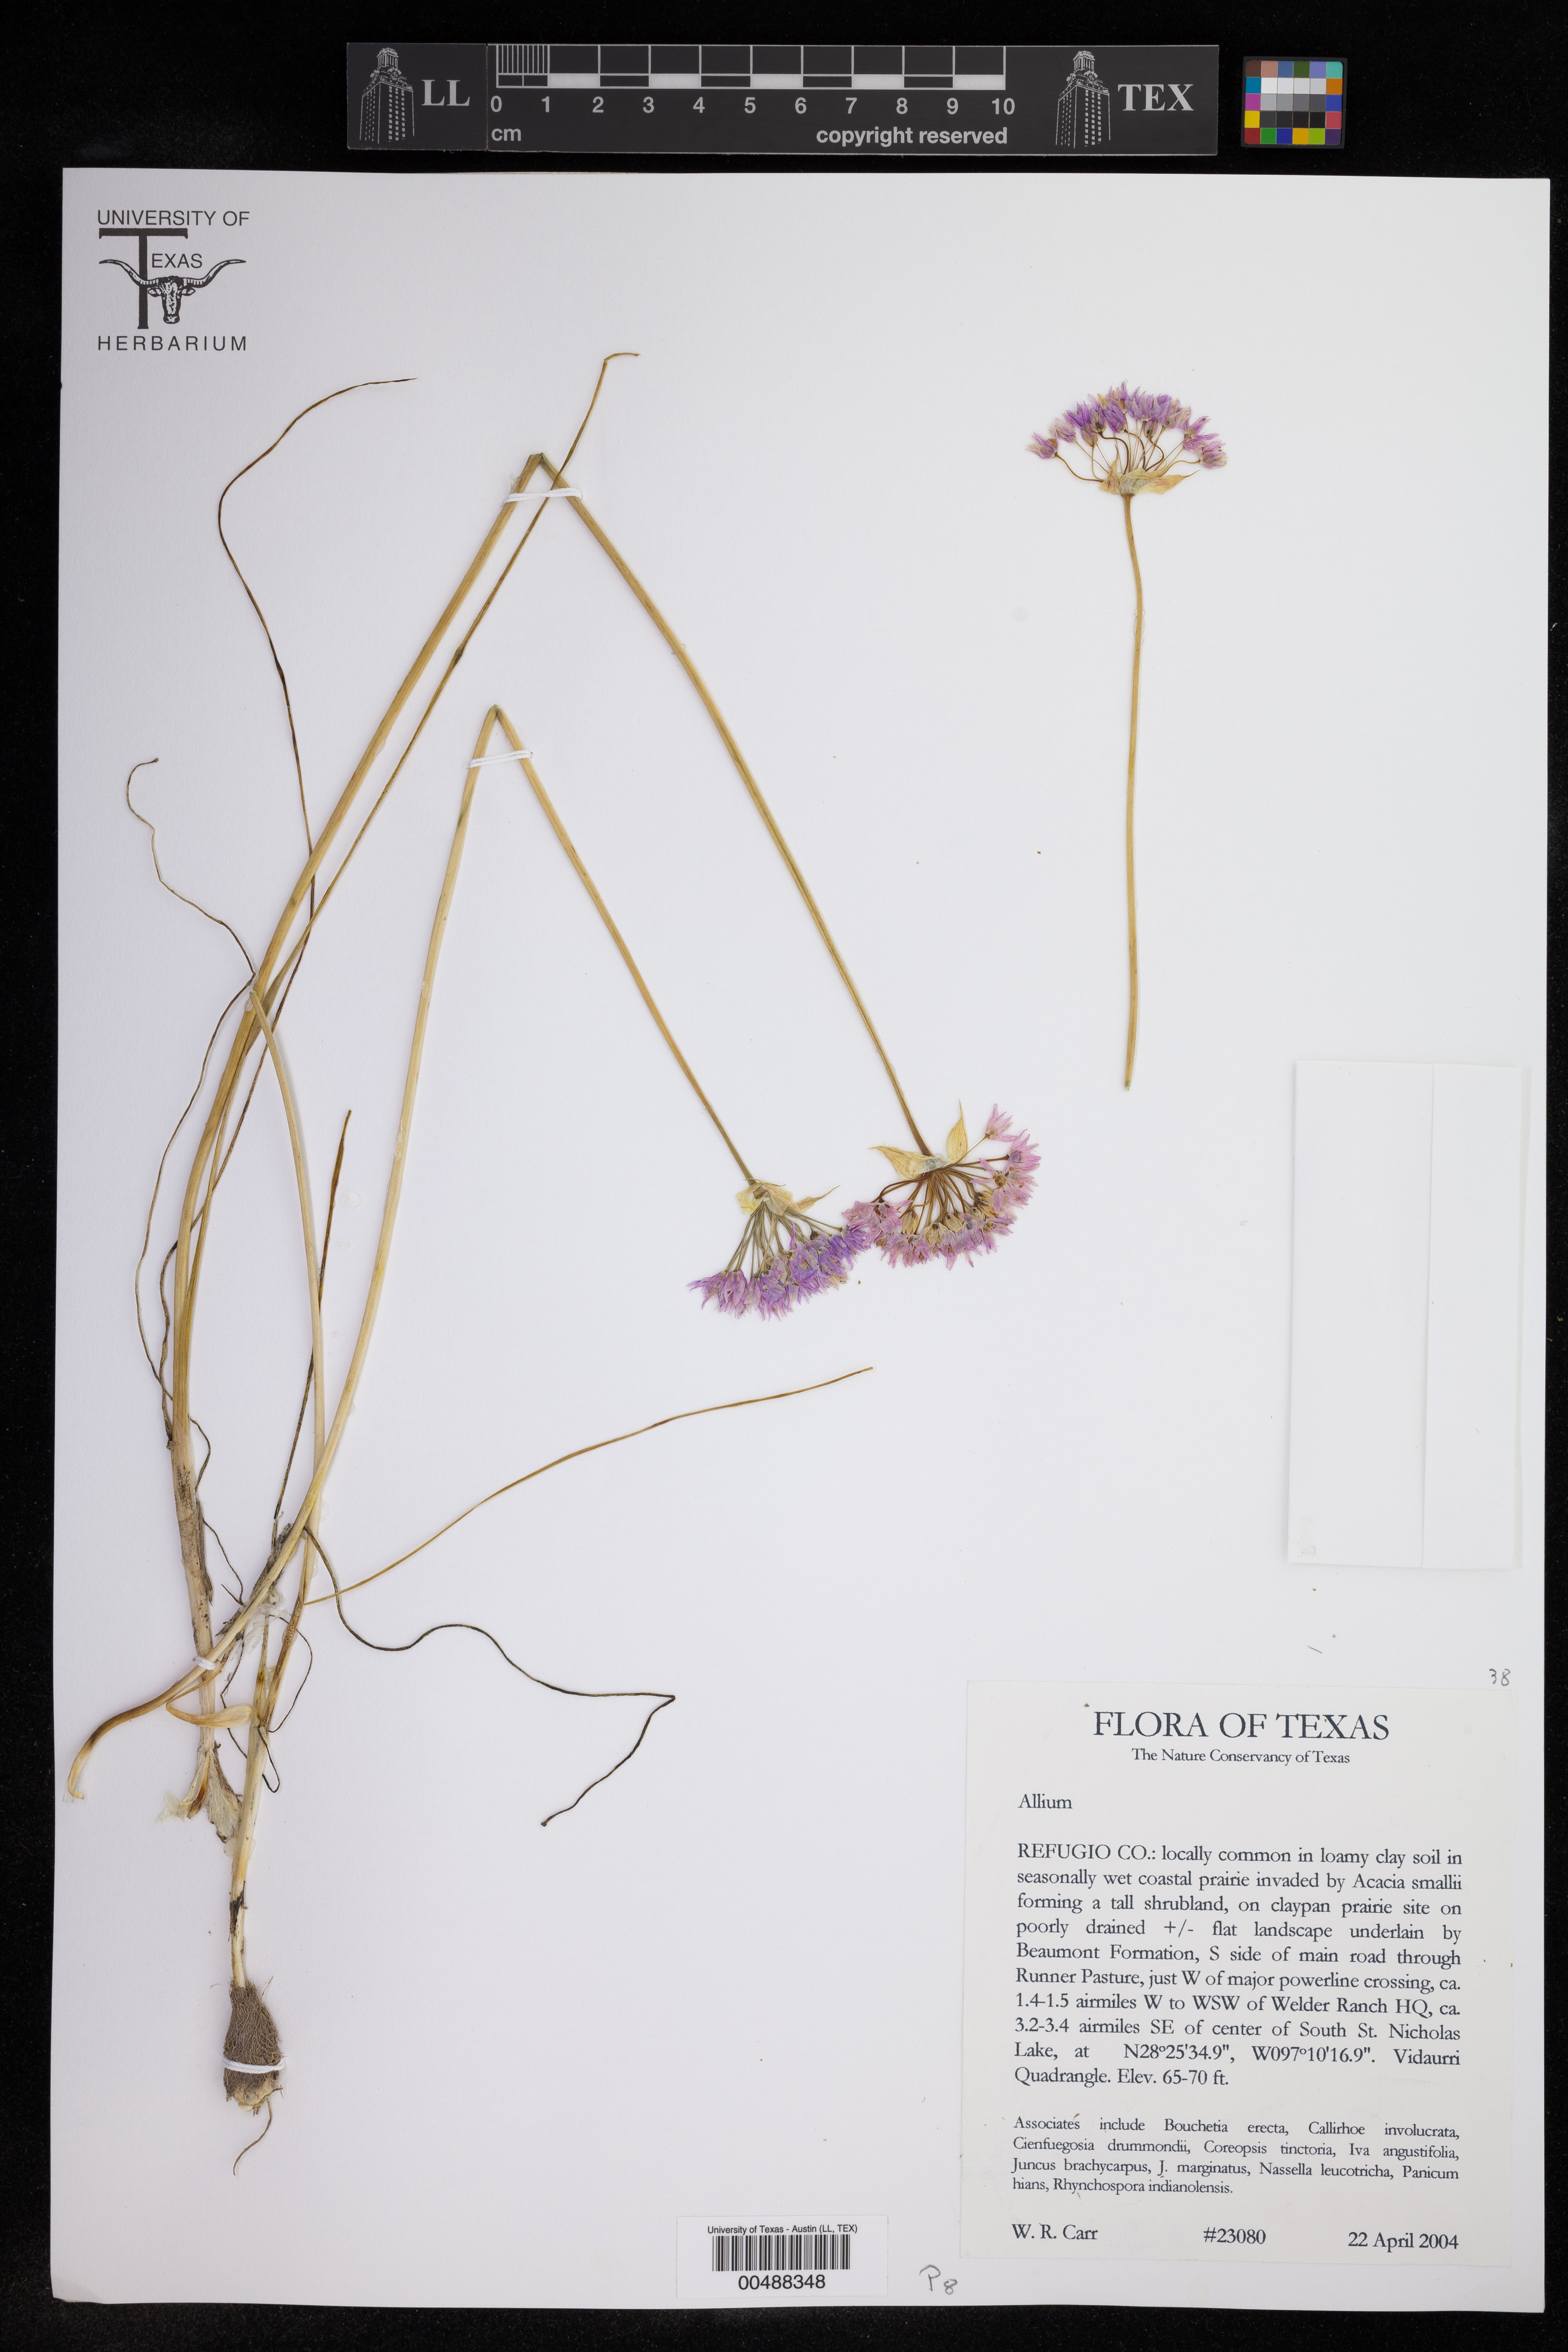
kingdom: Plantae
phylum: Tracheophyta
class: Liliopsida
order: Asparagales
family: Amaryllidaceae
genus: Allium
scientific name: Allium
